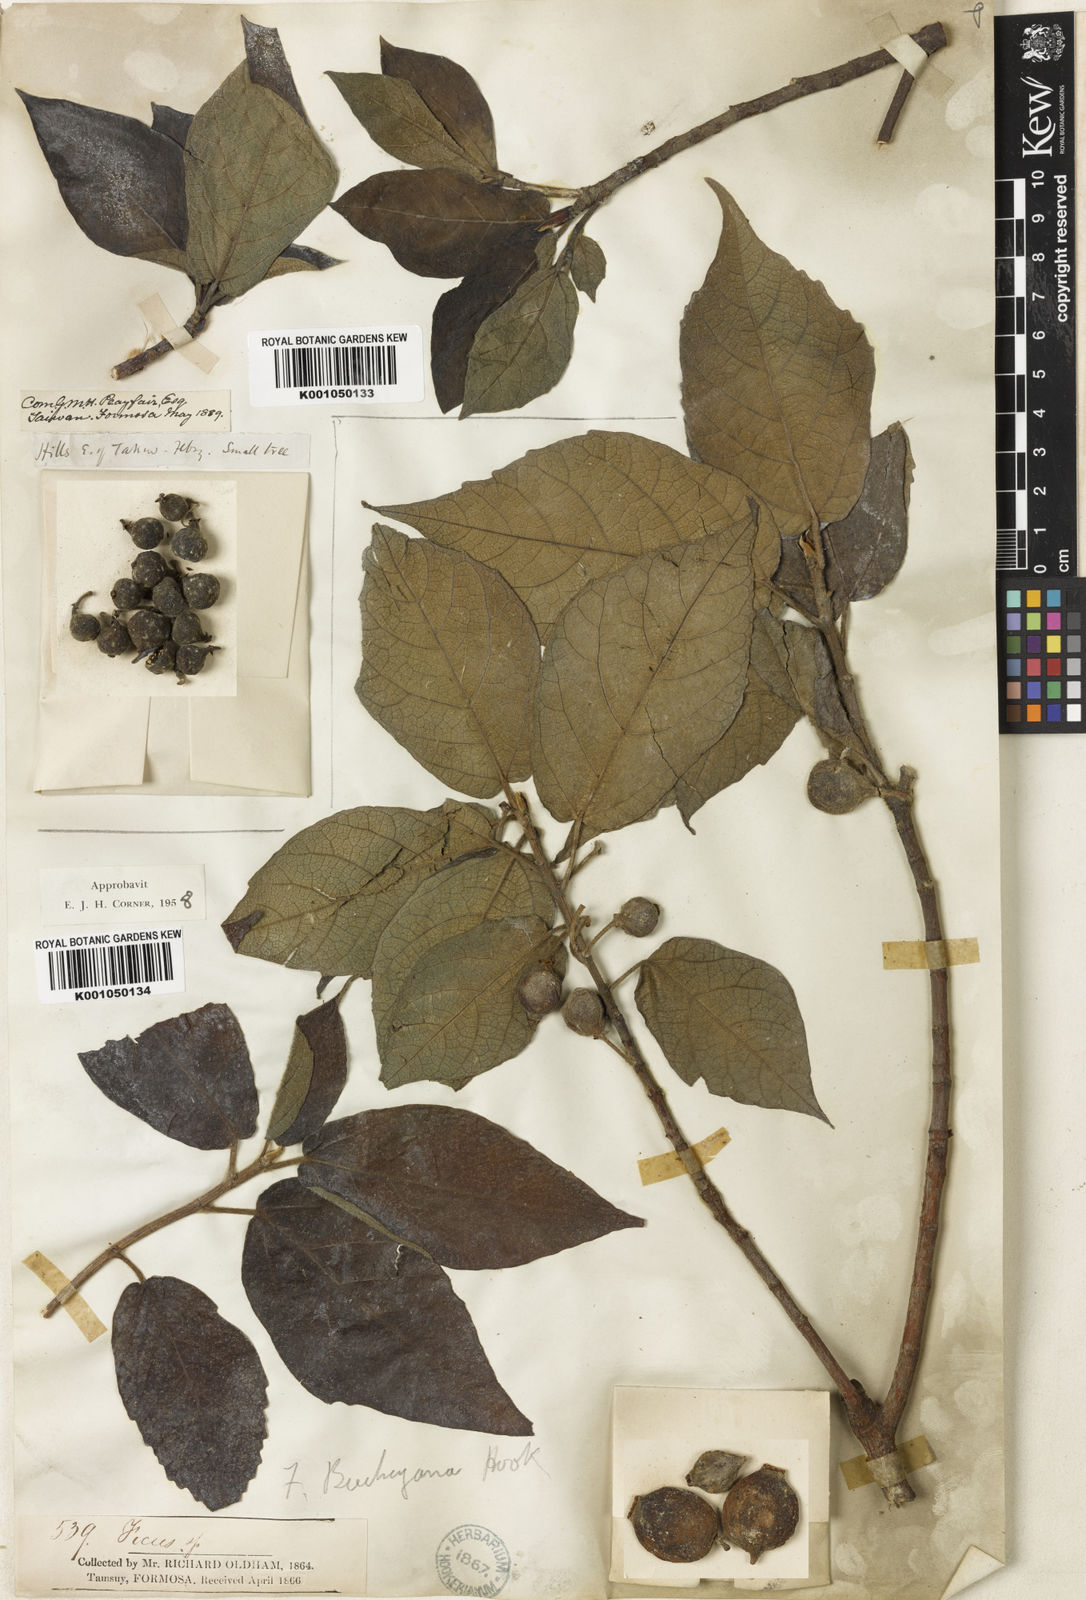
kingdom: Plantae
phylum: Tracheophyta
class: Magnoliopsida
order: Rosales
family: Moraceae
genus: Ficus
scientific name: Ficus erecta
